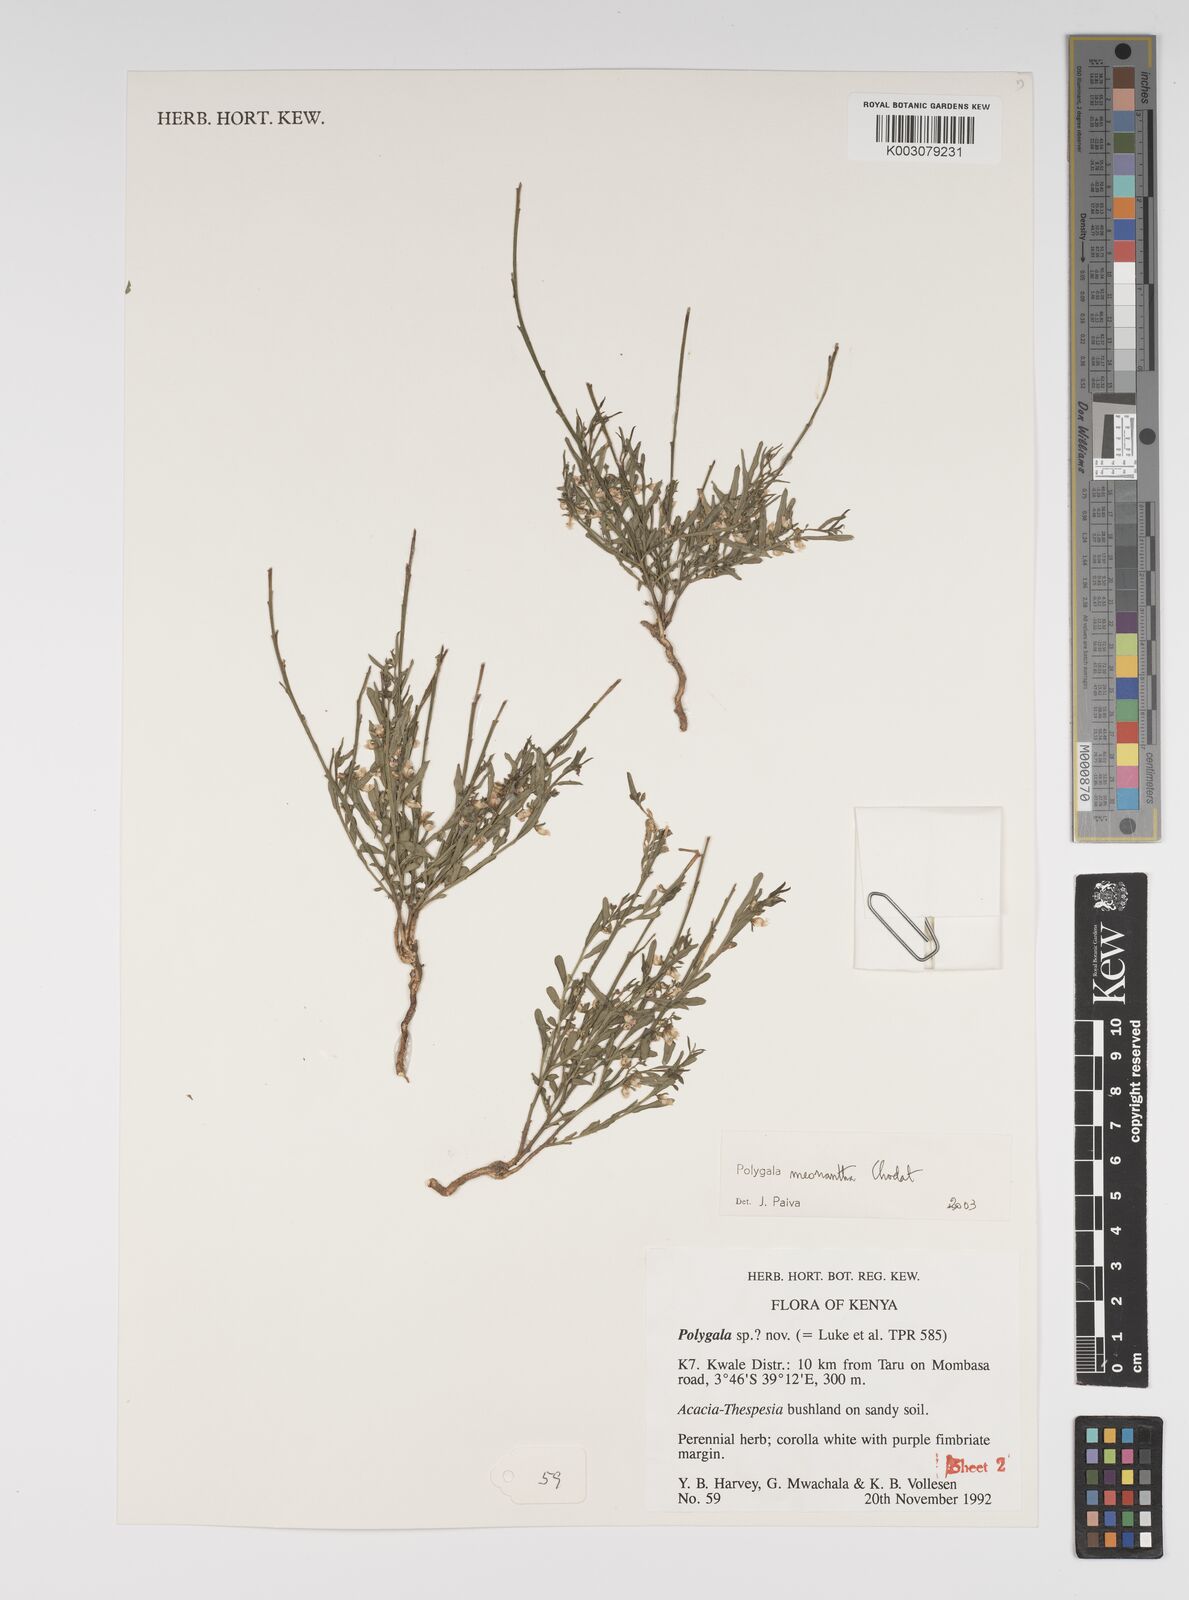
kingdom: Plantae
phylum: Tracheophyta
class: Magnoliopsida
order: Fabales
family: Polygalaceae
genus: Polygala
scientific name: Polygala meonantha
